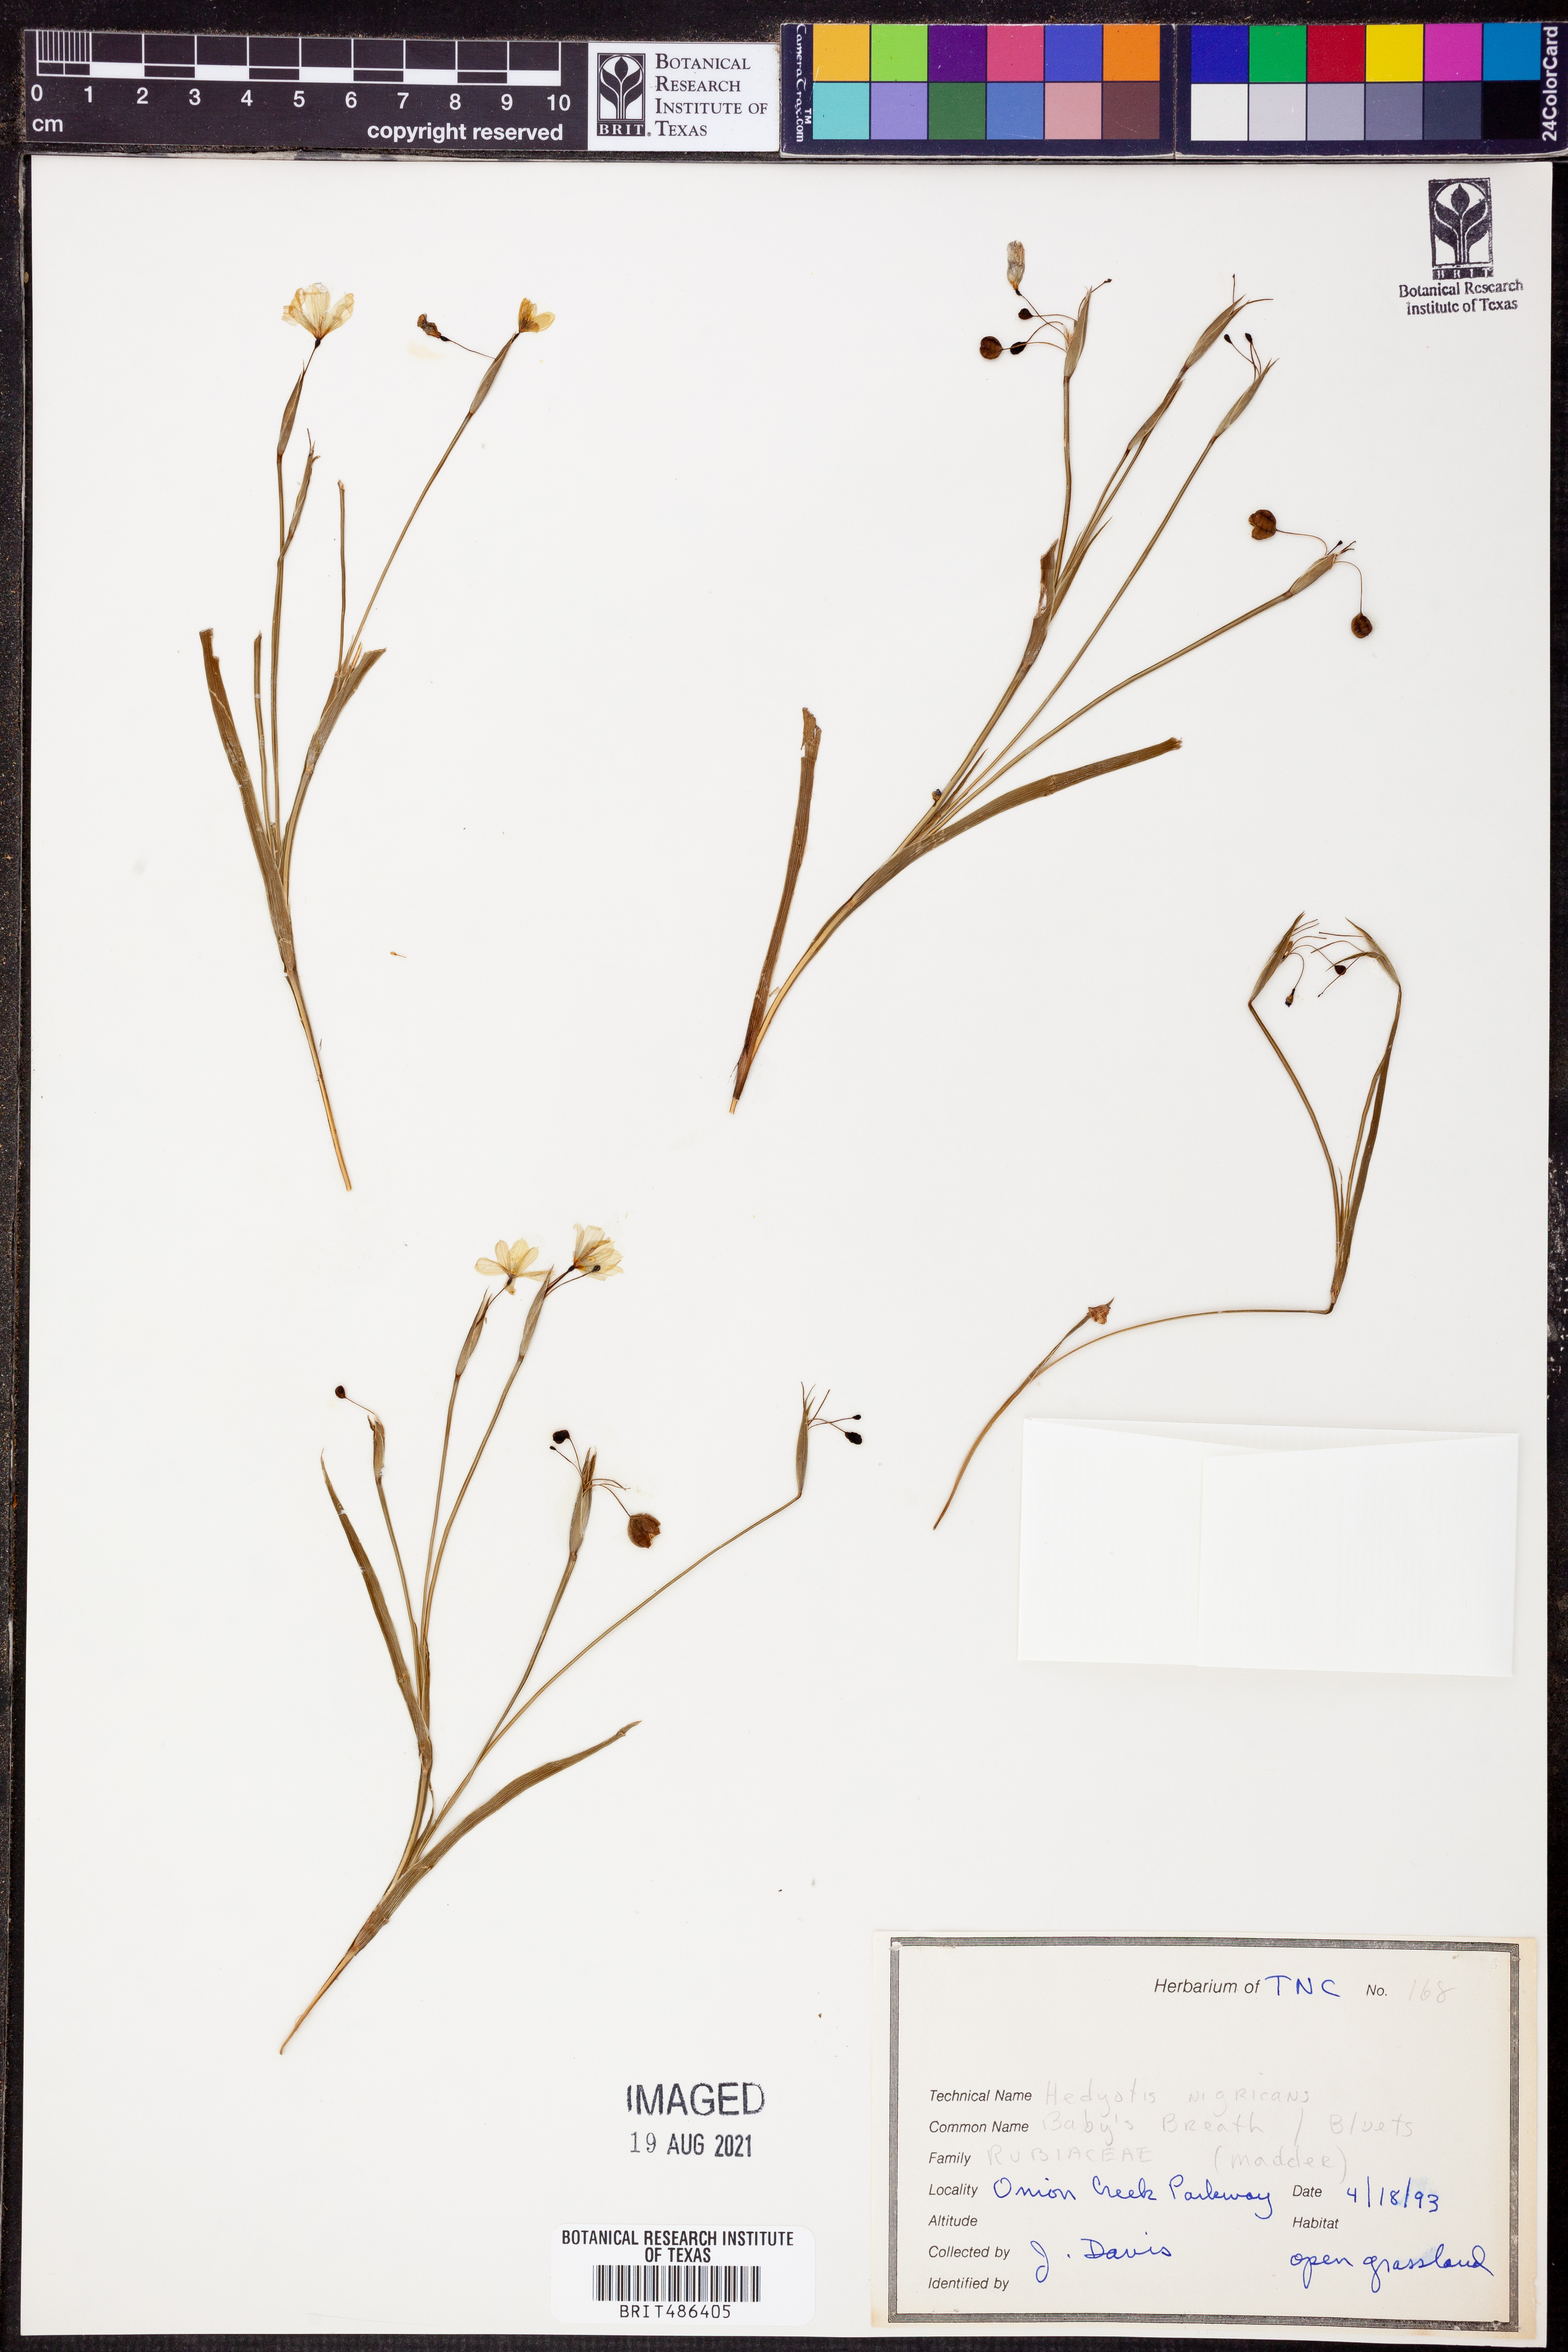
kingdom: Plantae
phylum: Tracheophyta
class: Magnoliopsida
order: Gentianales
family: Rubiaceae
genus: Stenaria
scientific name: Stenaria nigricans
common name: Diamondflowers
